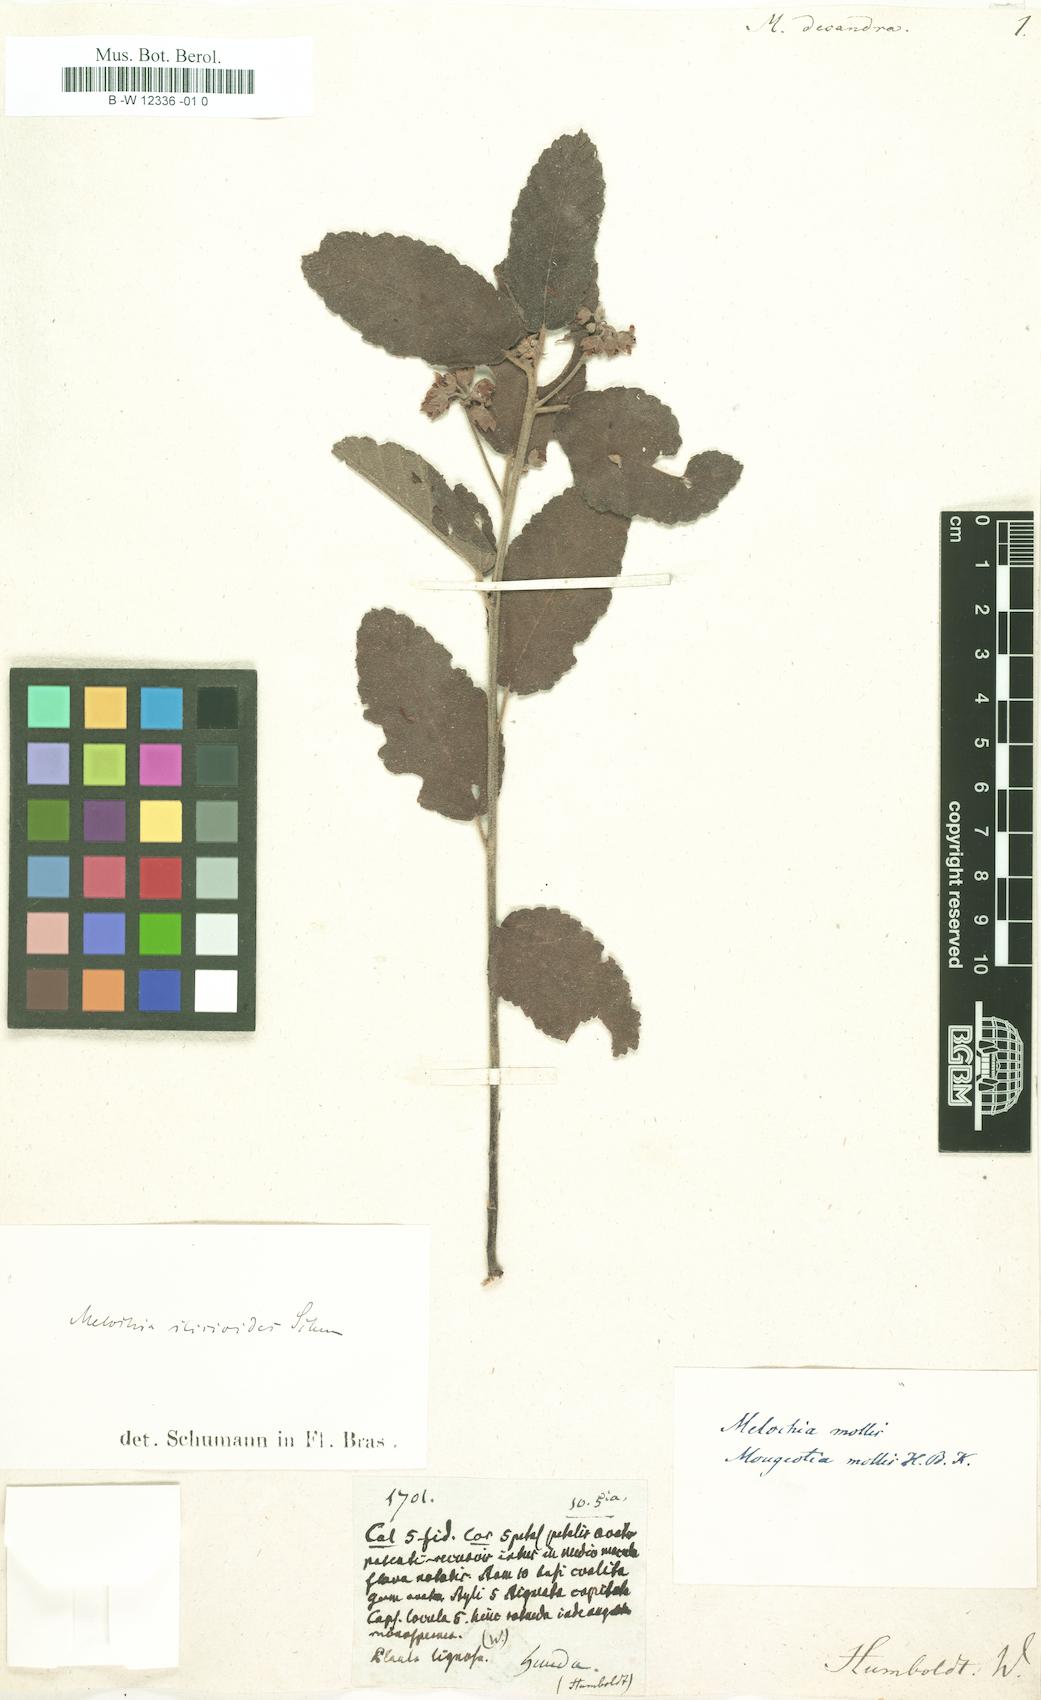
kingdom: Plantae
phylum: Tracheophyta
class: Magnoliopsida
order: Malvales
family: Malvaceae
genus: Melochia
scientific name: Melochia illicioides
